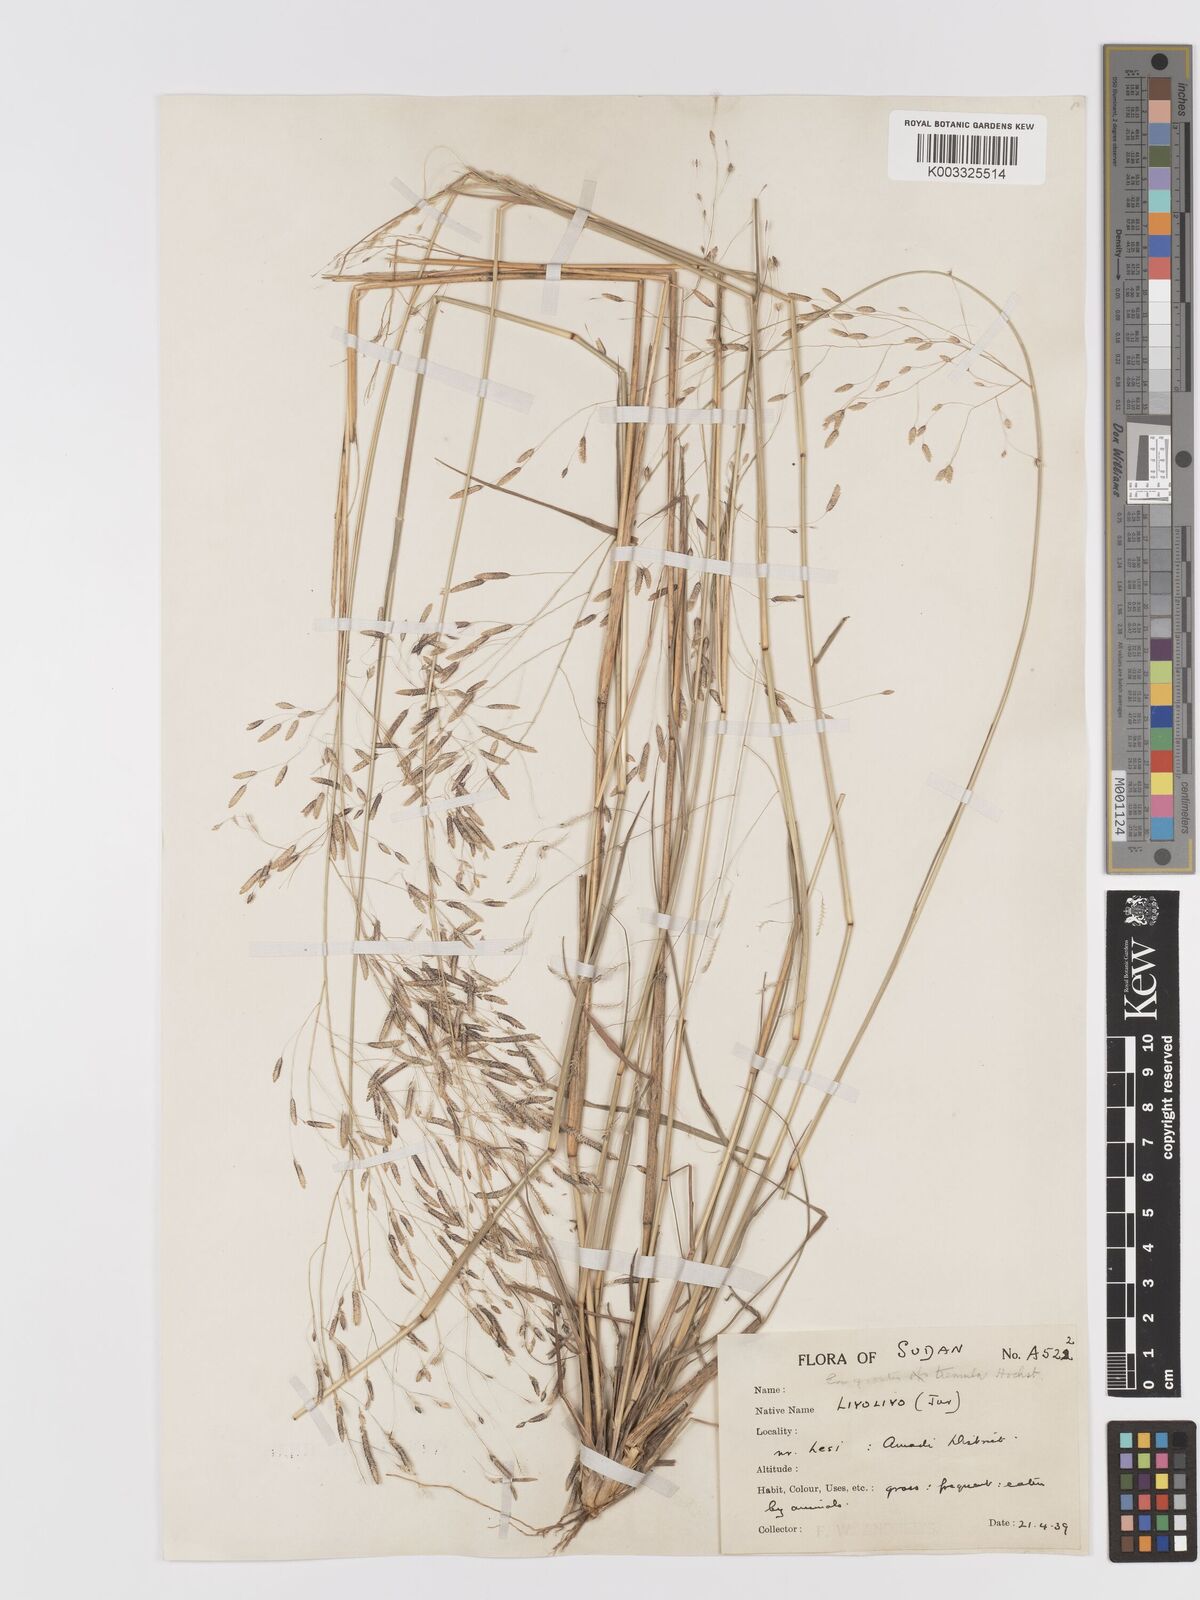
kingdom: Plantae
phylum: Tracheophyta
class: Liliopsida
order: Poales
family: Poaceae
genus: Eragrostis
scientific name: Eragrostis tremula
